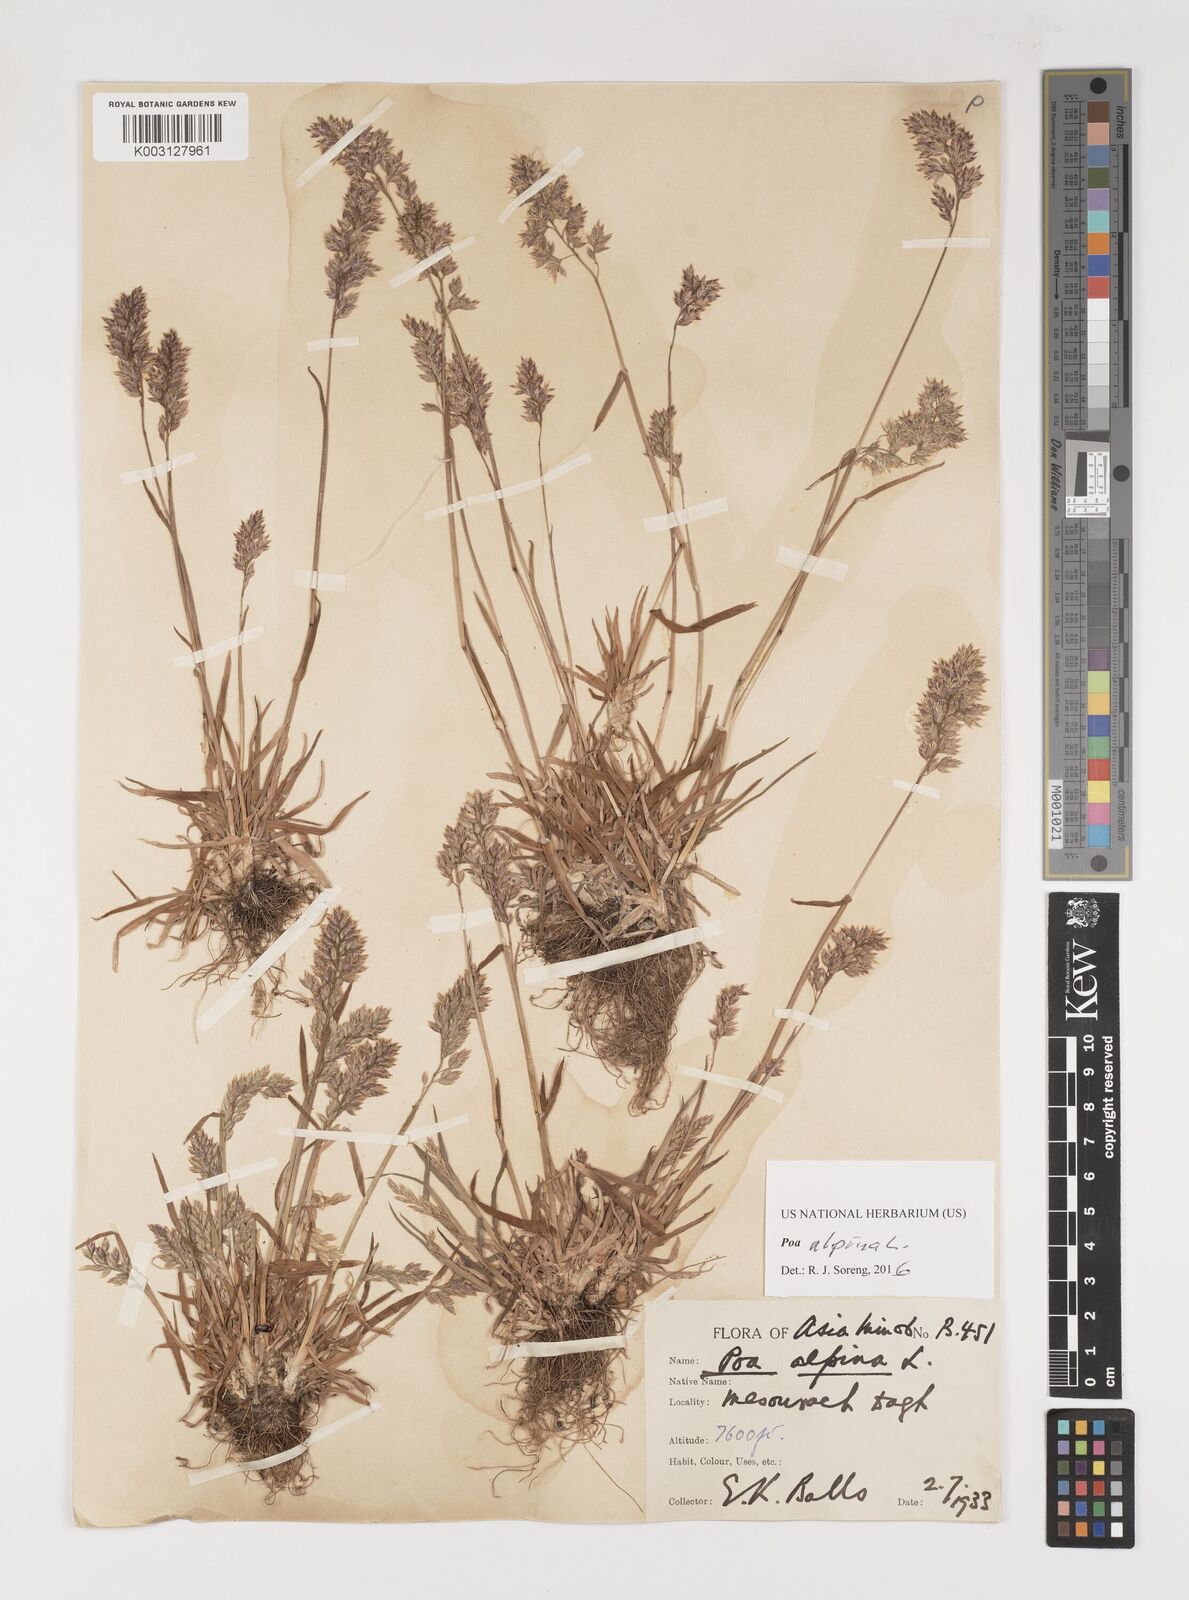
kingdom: Plantae
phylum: Tracheophyta
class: Liliopsida
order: Poales
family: Poaceae
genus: Poa
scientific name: Poa alpina
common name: Alpine bluegrass
